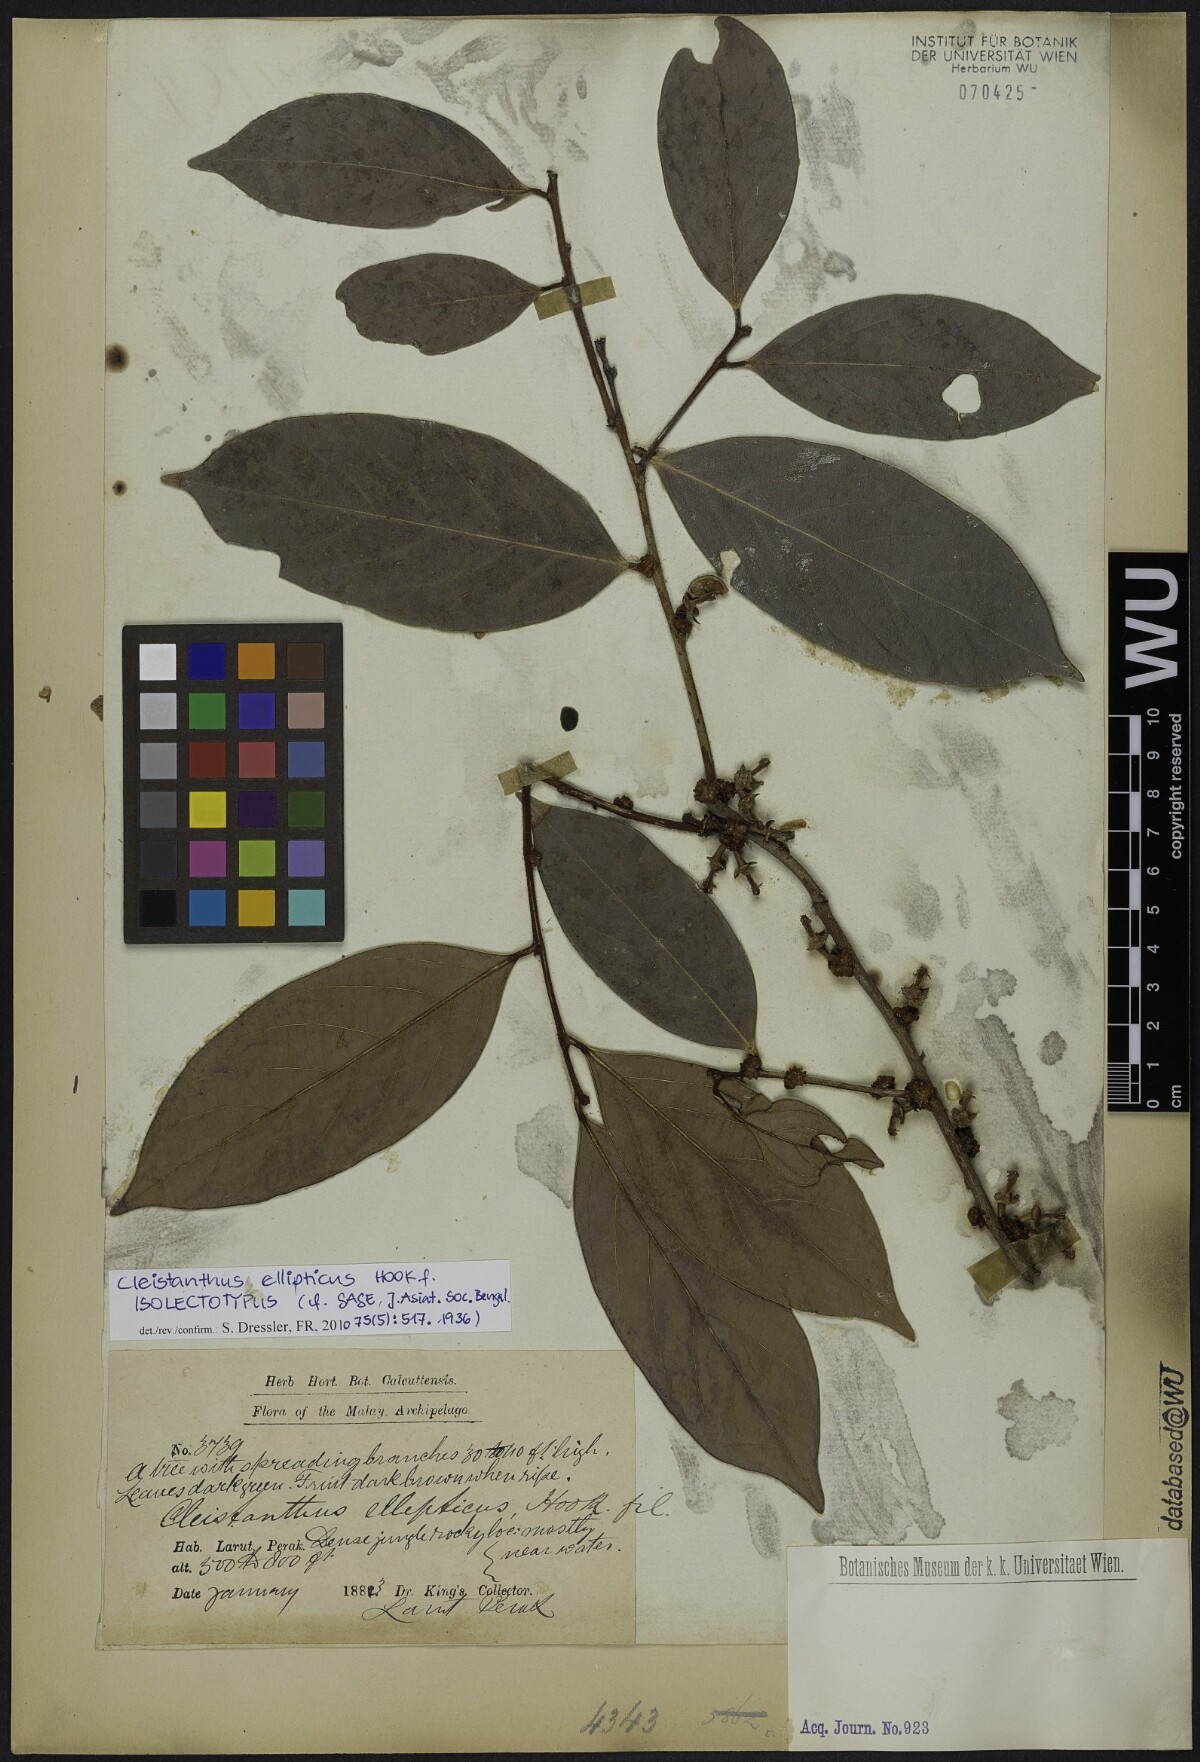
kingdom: Plantae
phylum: Tracheophyta
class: Magnoliopsida
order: Malpighiales
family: Phyllanthaceae
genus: Cleistanthus
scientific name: Cleistanthus ellipticus
